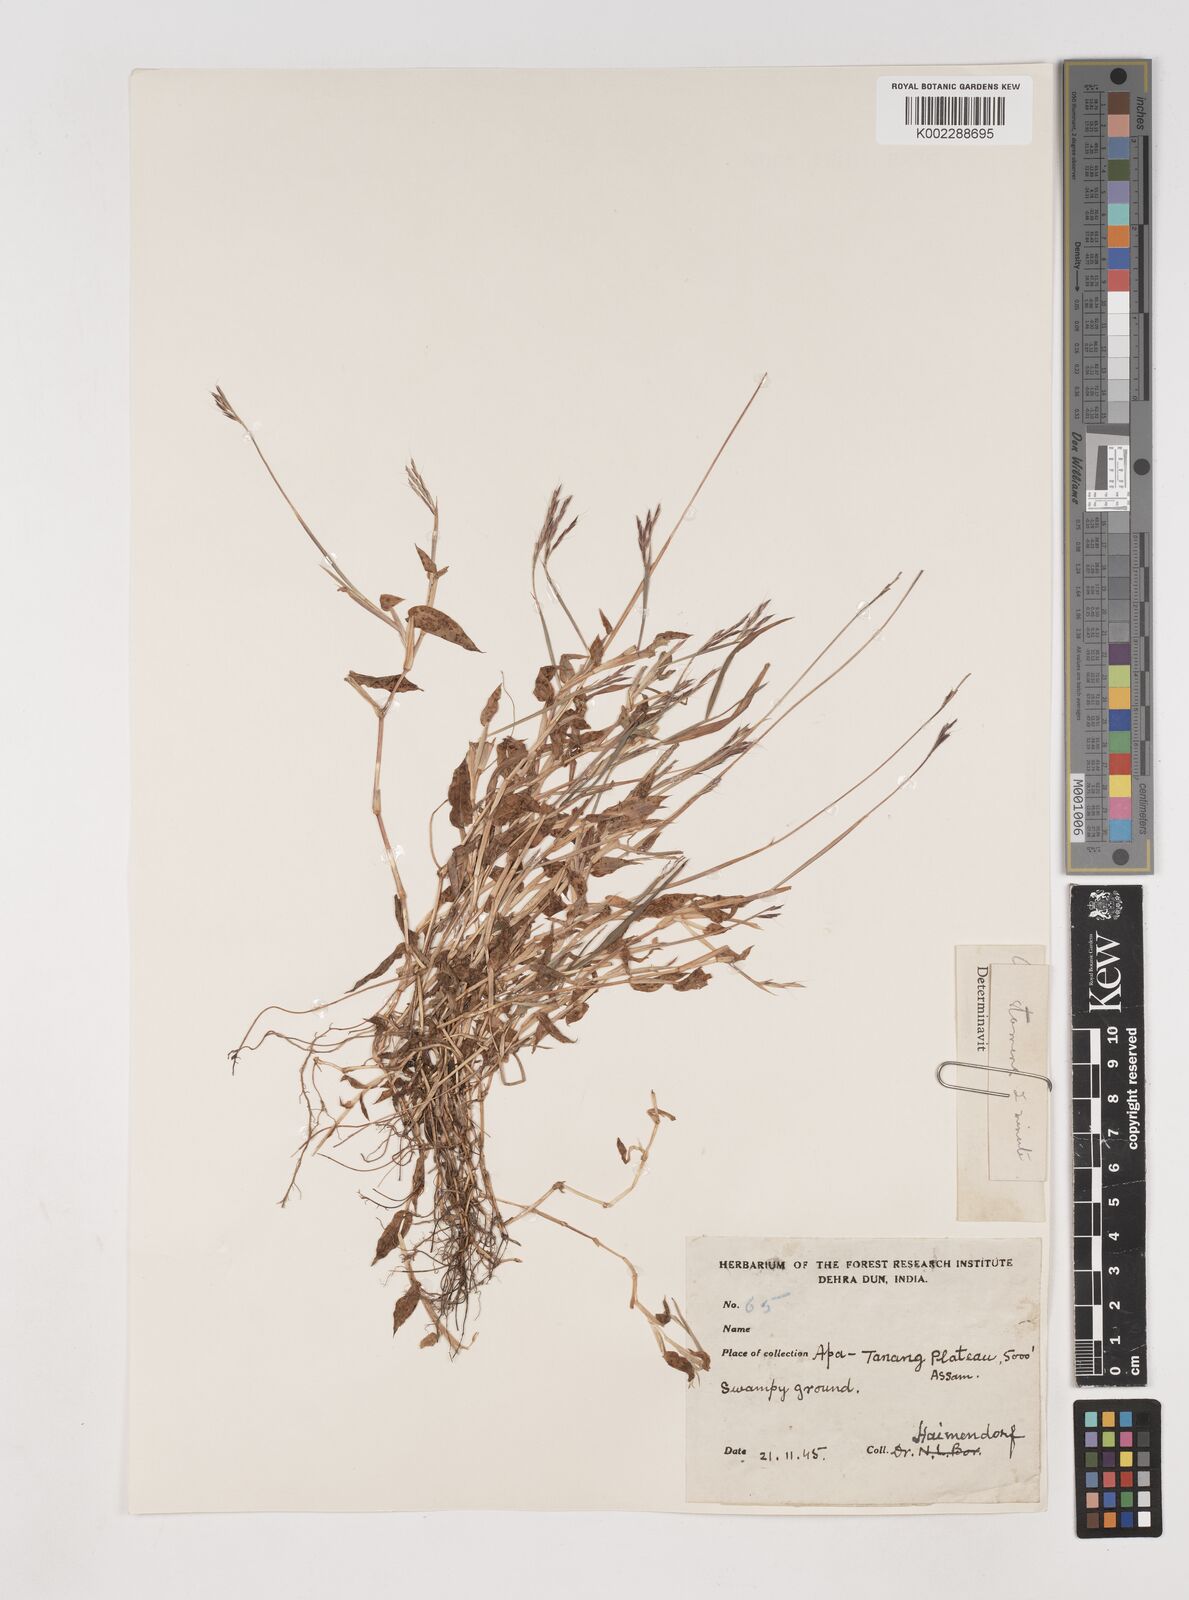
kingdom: Plantae
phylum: Tracheophyta
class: Liliopsida
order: Poales
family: Poaceae
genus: Arthraxon
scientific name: Arthraxon hispidus
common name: Small carpgrass
